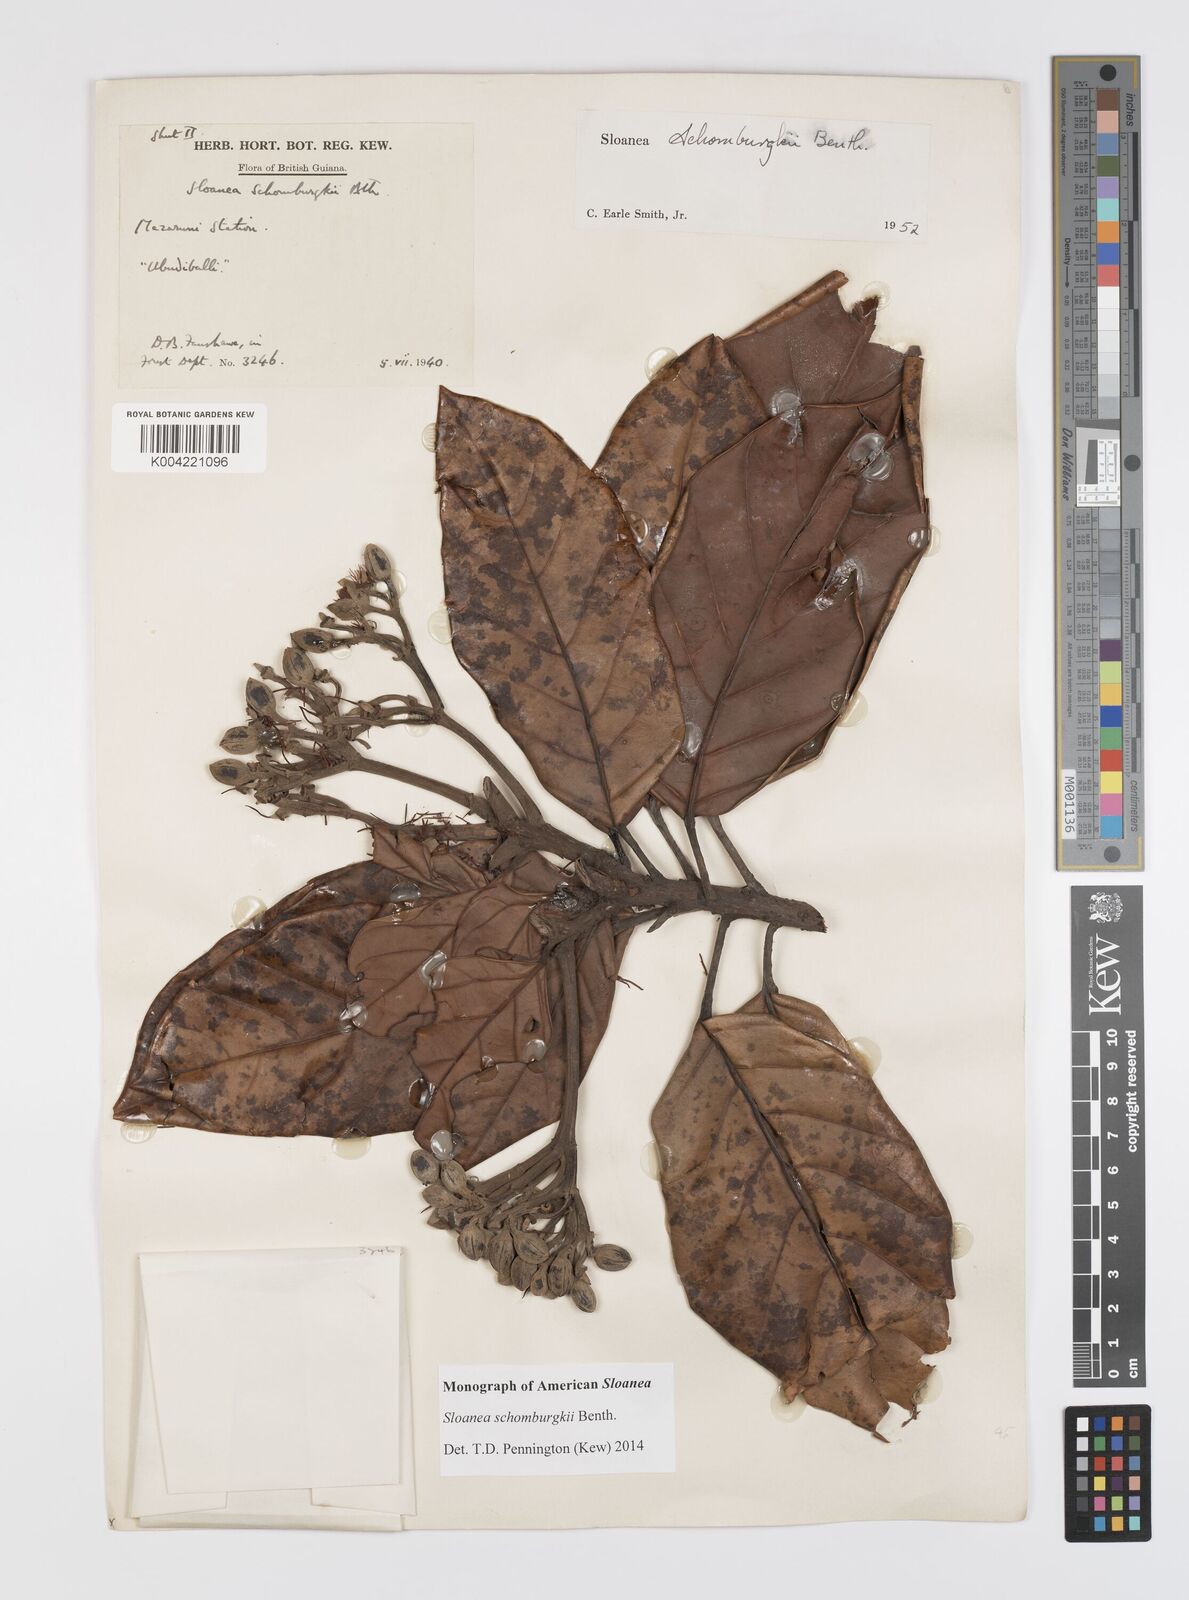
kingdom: Plantae
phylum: Tracheophyta
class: Magnoliopsida
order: Oxalidales
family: Elaeocarpaceae
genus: Sloanea
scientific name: Sloanea schomburgkii
